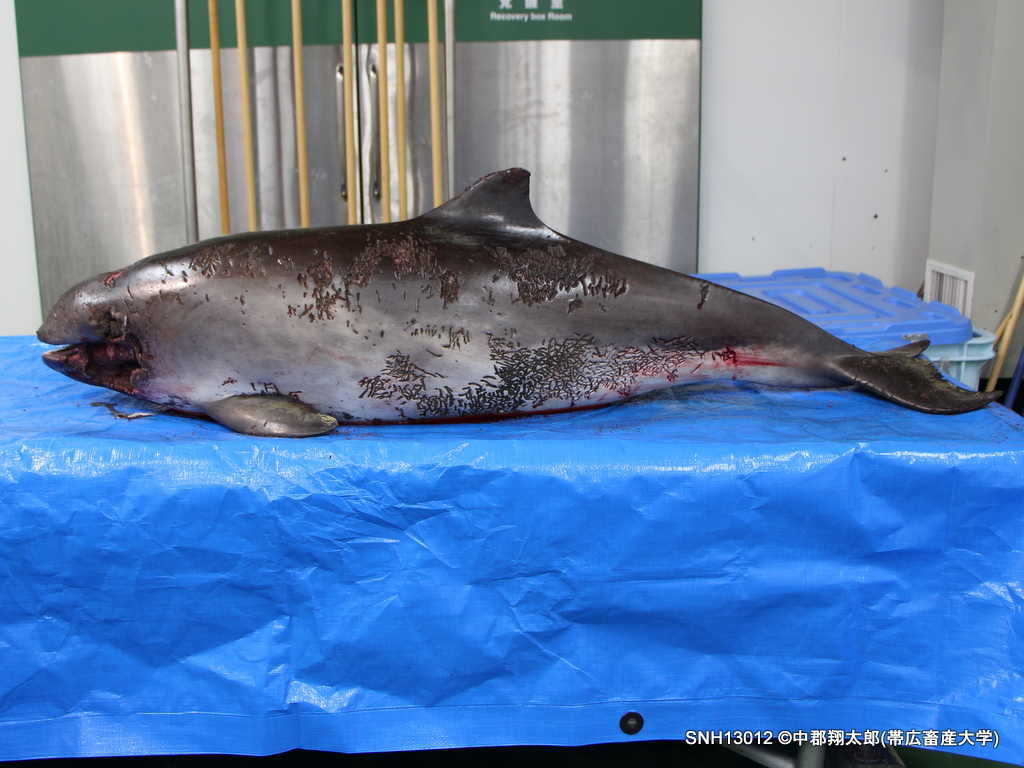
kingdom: Animalia
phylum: Chordata
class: Mammalia
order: Cetacea
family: Phocoenidae
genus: Phocoena
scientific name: Phocoena phocoena
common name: Harbour porpoise
